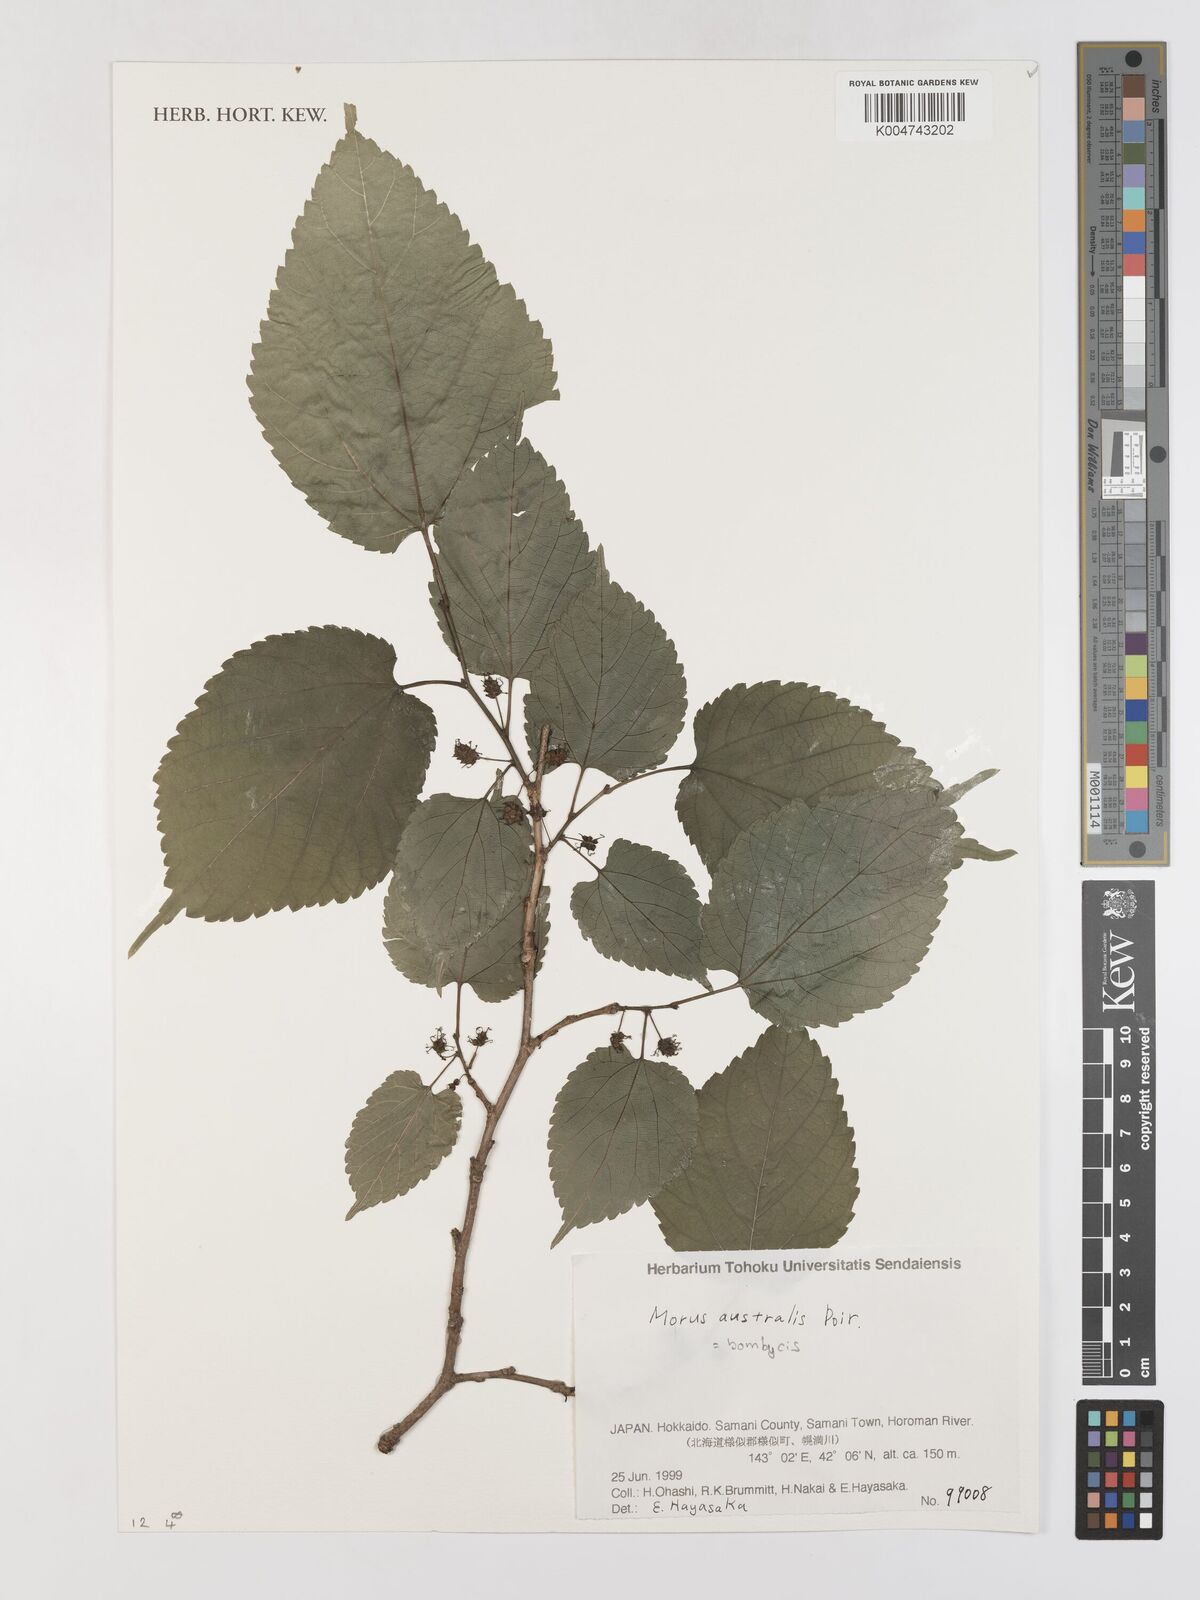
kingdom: Plantae
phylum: Tracheophyta
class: Magnoliopsida
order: Rosales
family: Moraceae
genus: Morus
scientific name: Morus indica
